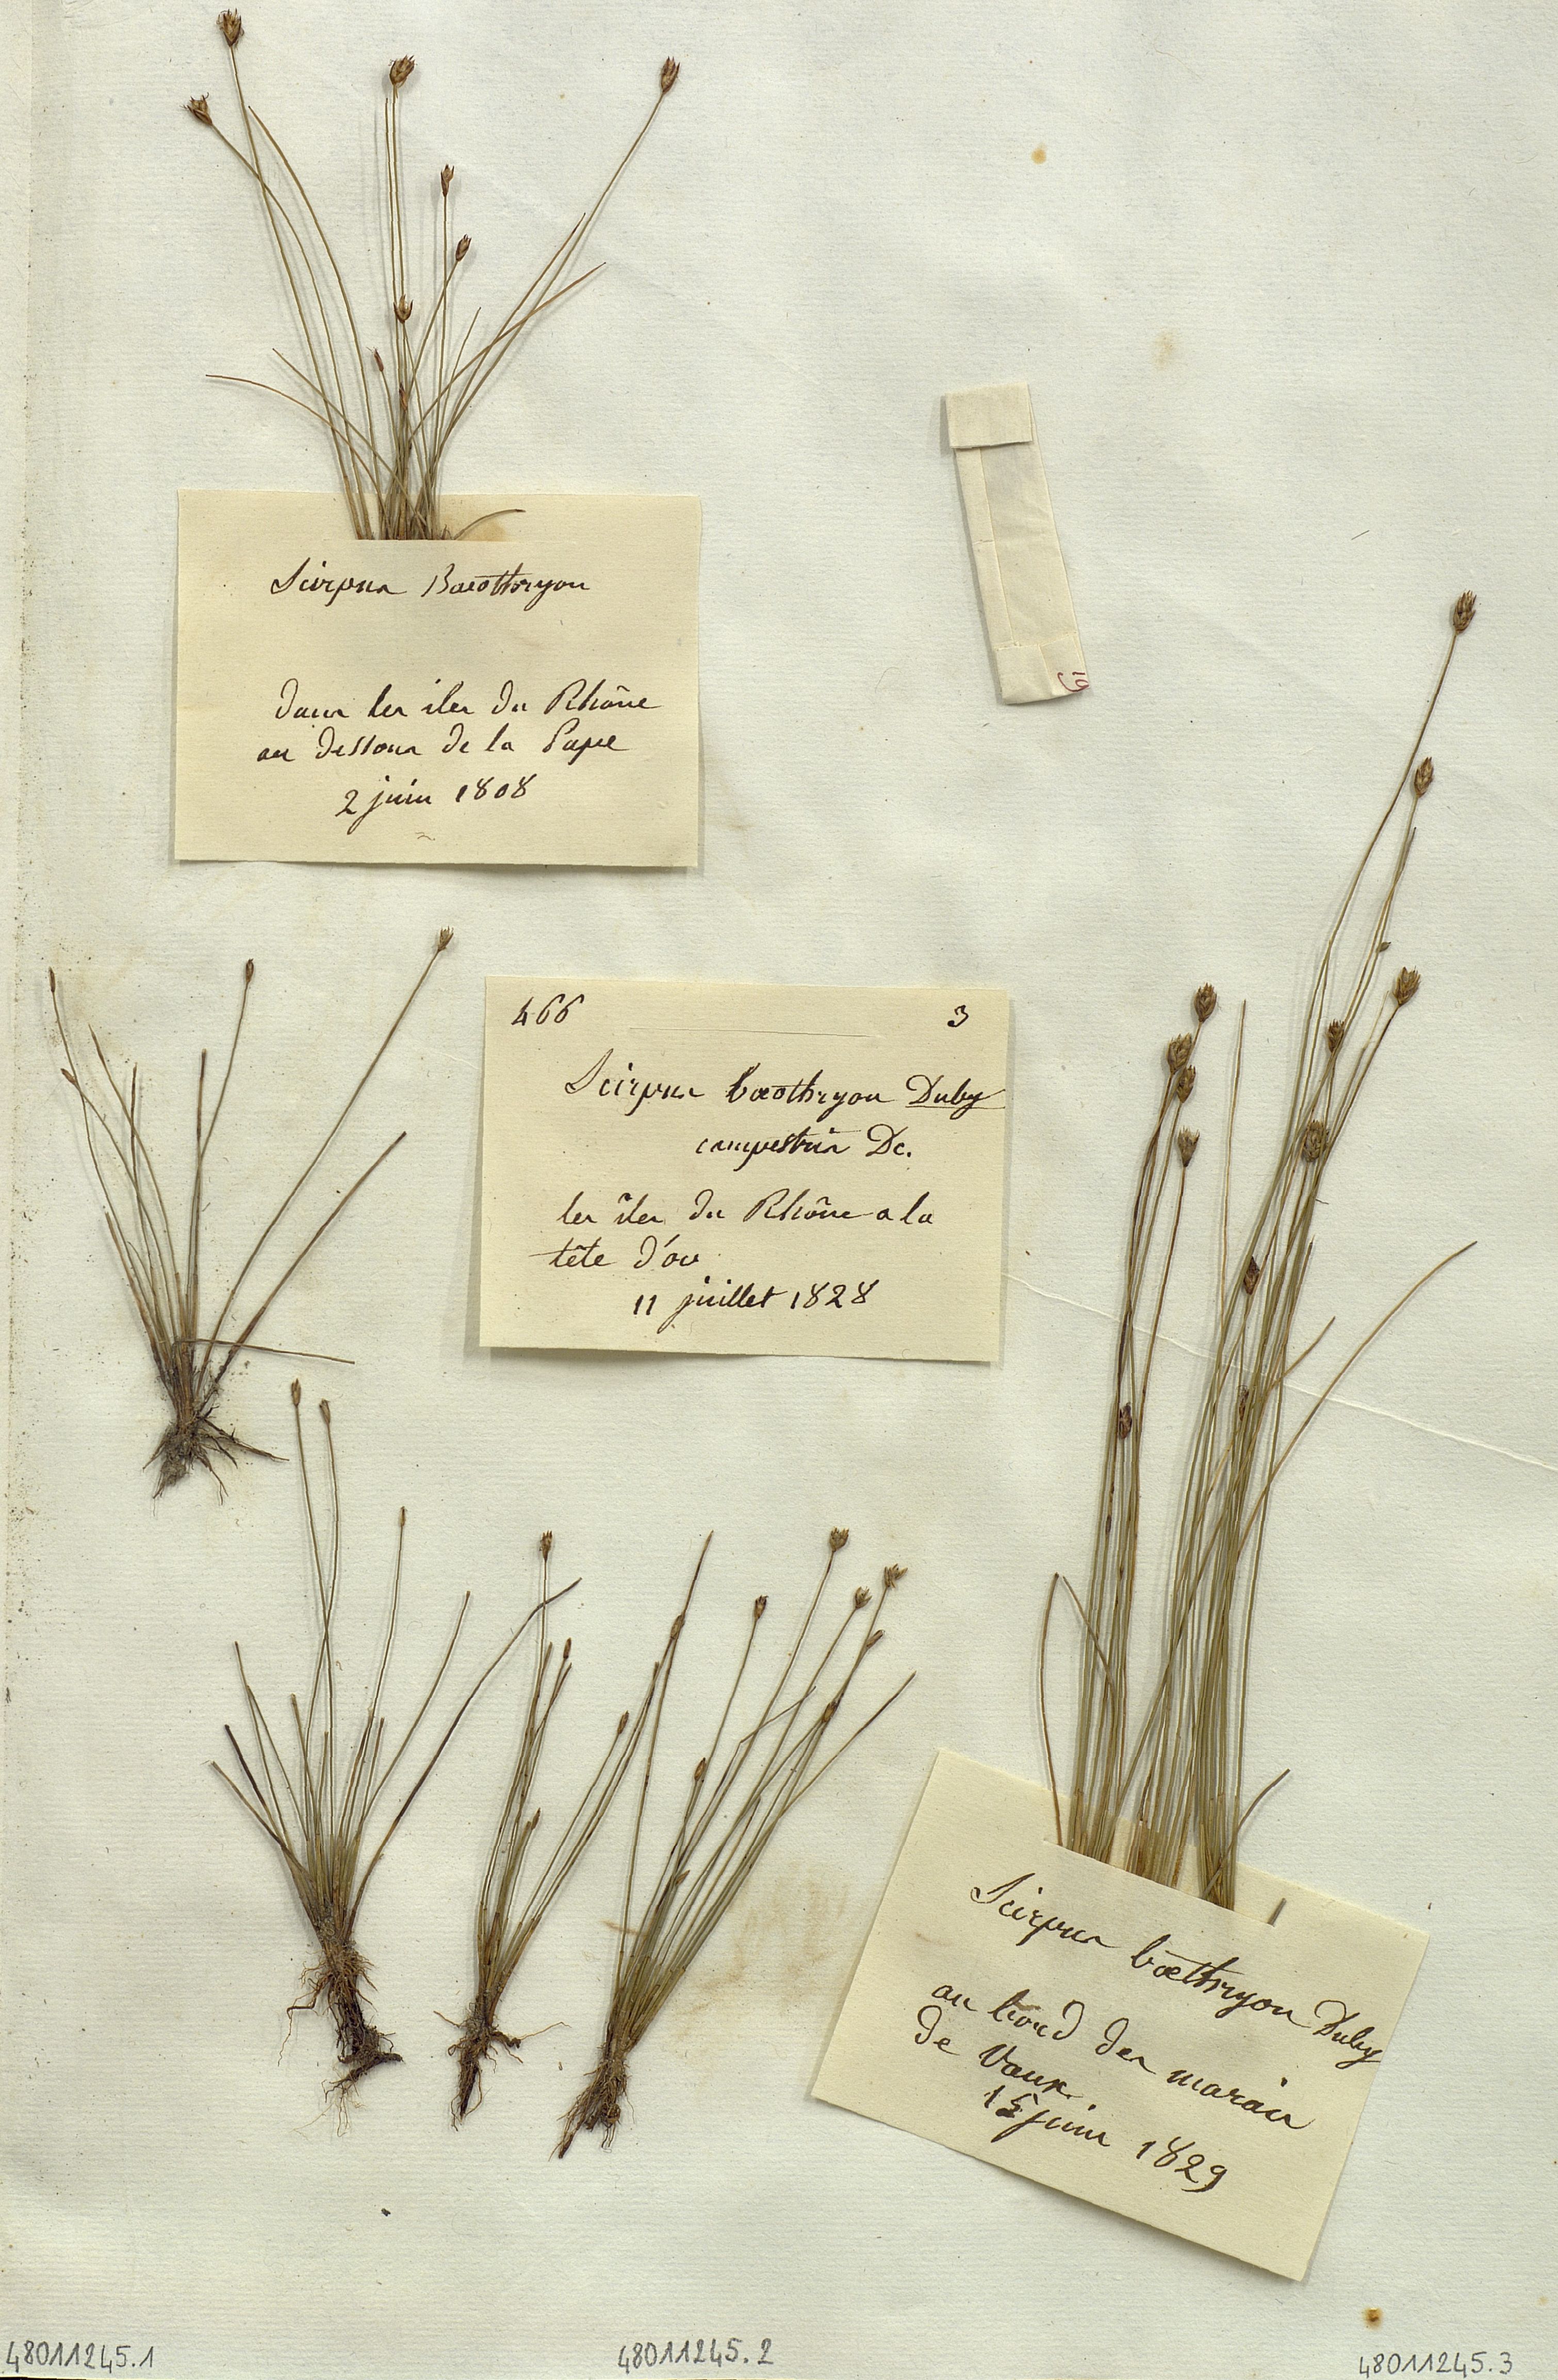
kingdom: Plantae
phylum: Tracheophyta
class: Liliopsida
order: Poales
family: Cyperaceae
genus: Scirpus
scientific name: Scirpus baeothryon
